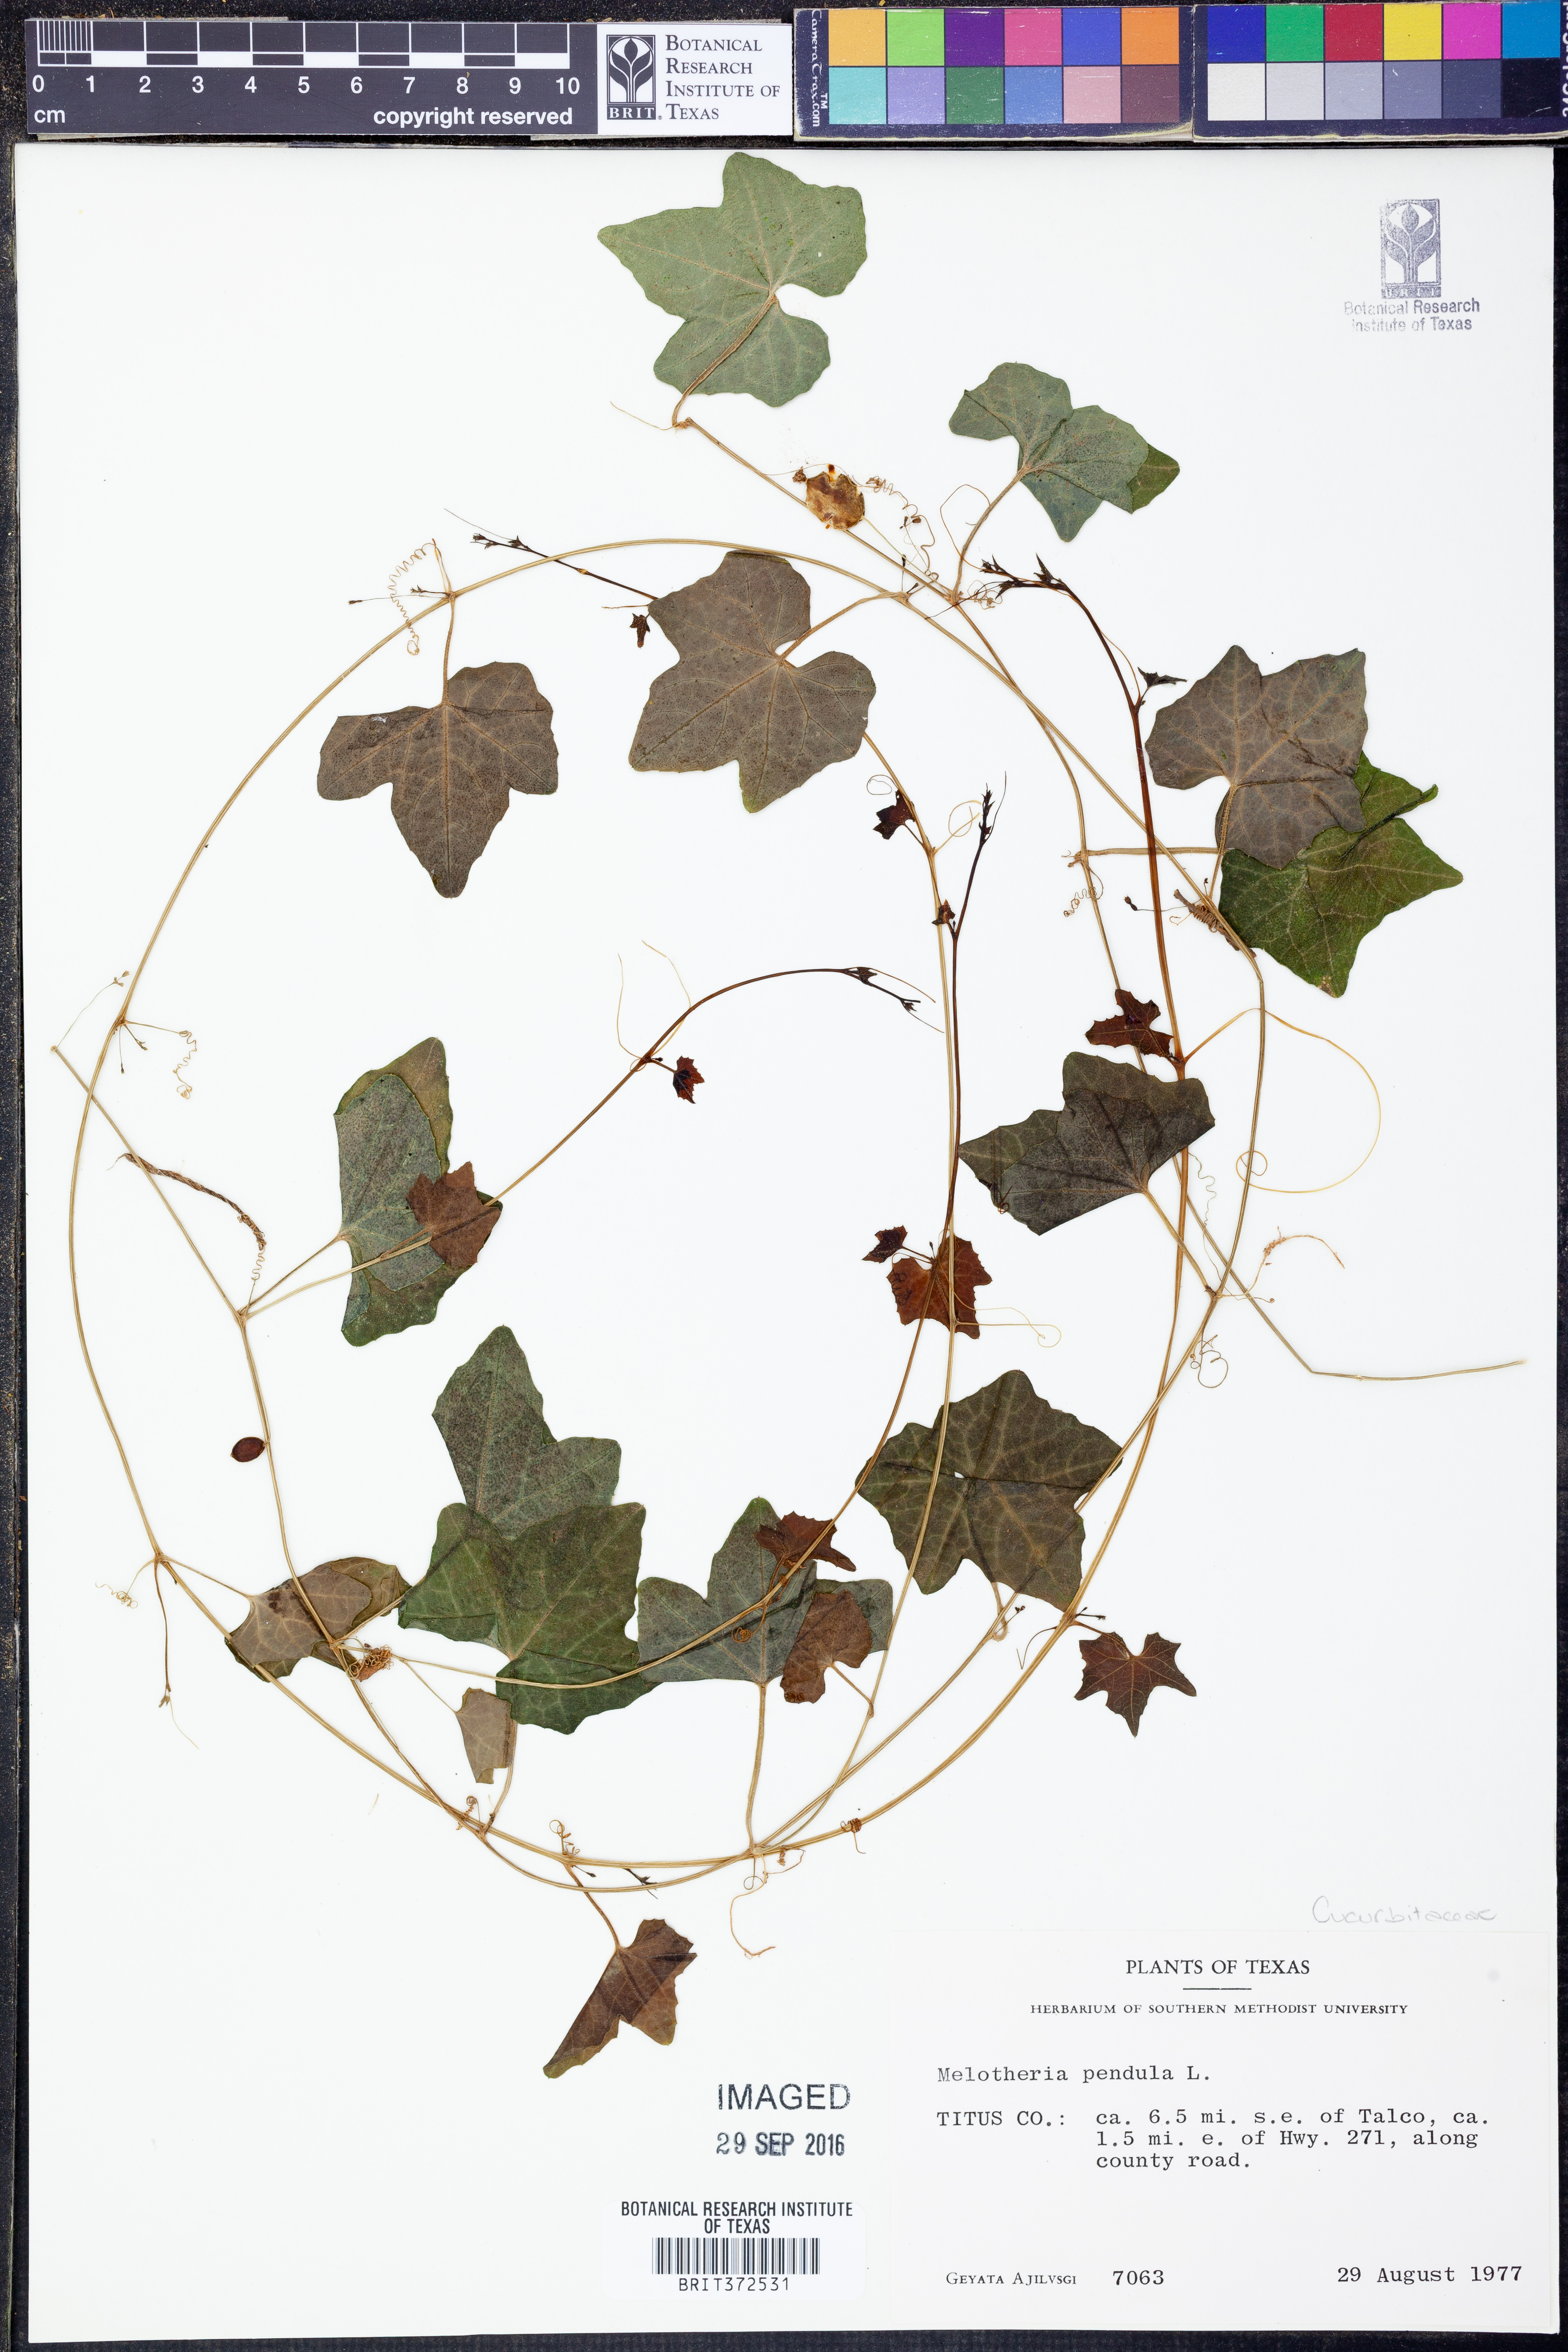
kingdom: Plantae
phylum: Tracheophyta
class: Magnoliopsida
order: Cucurbitales
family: Cucurbitaceae
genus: Melothria
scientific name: Melothria pendula
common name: Creeping-cucumber
